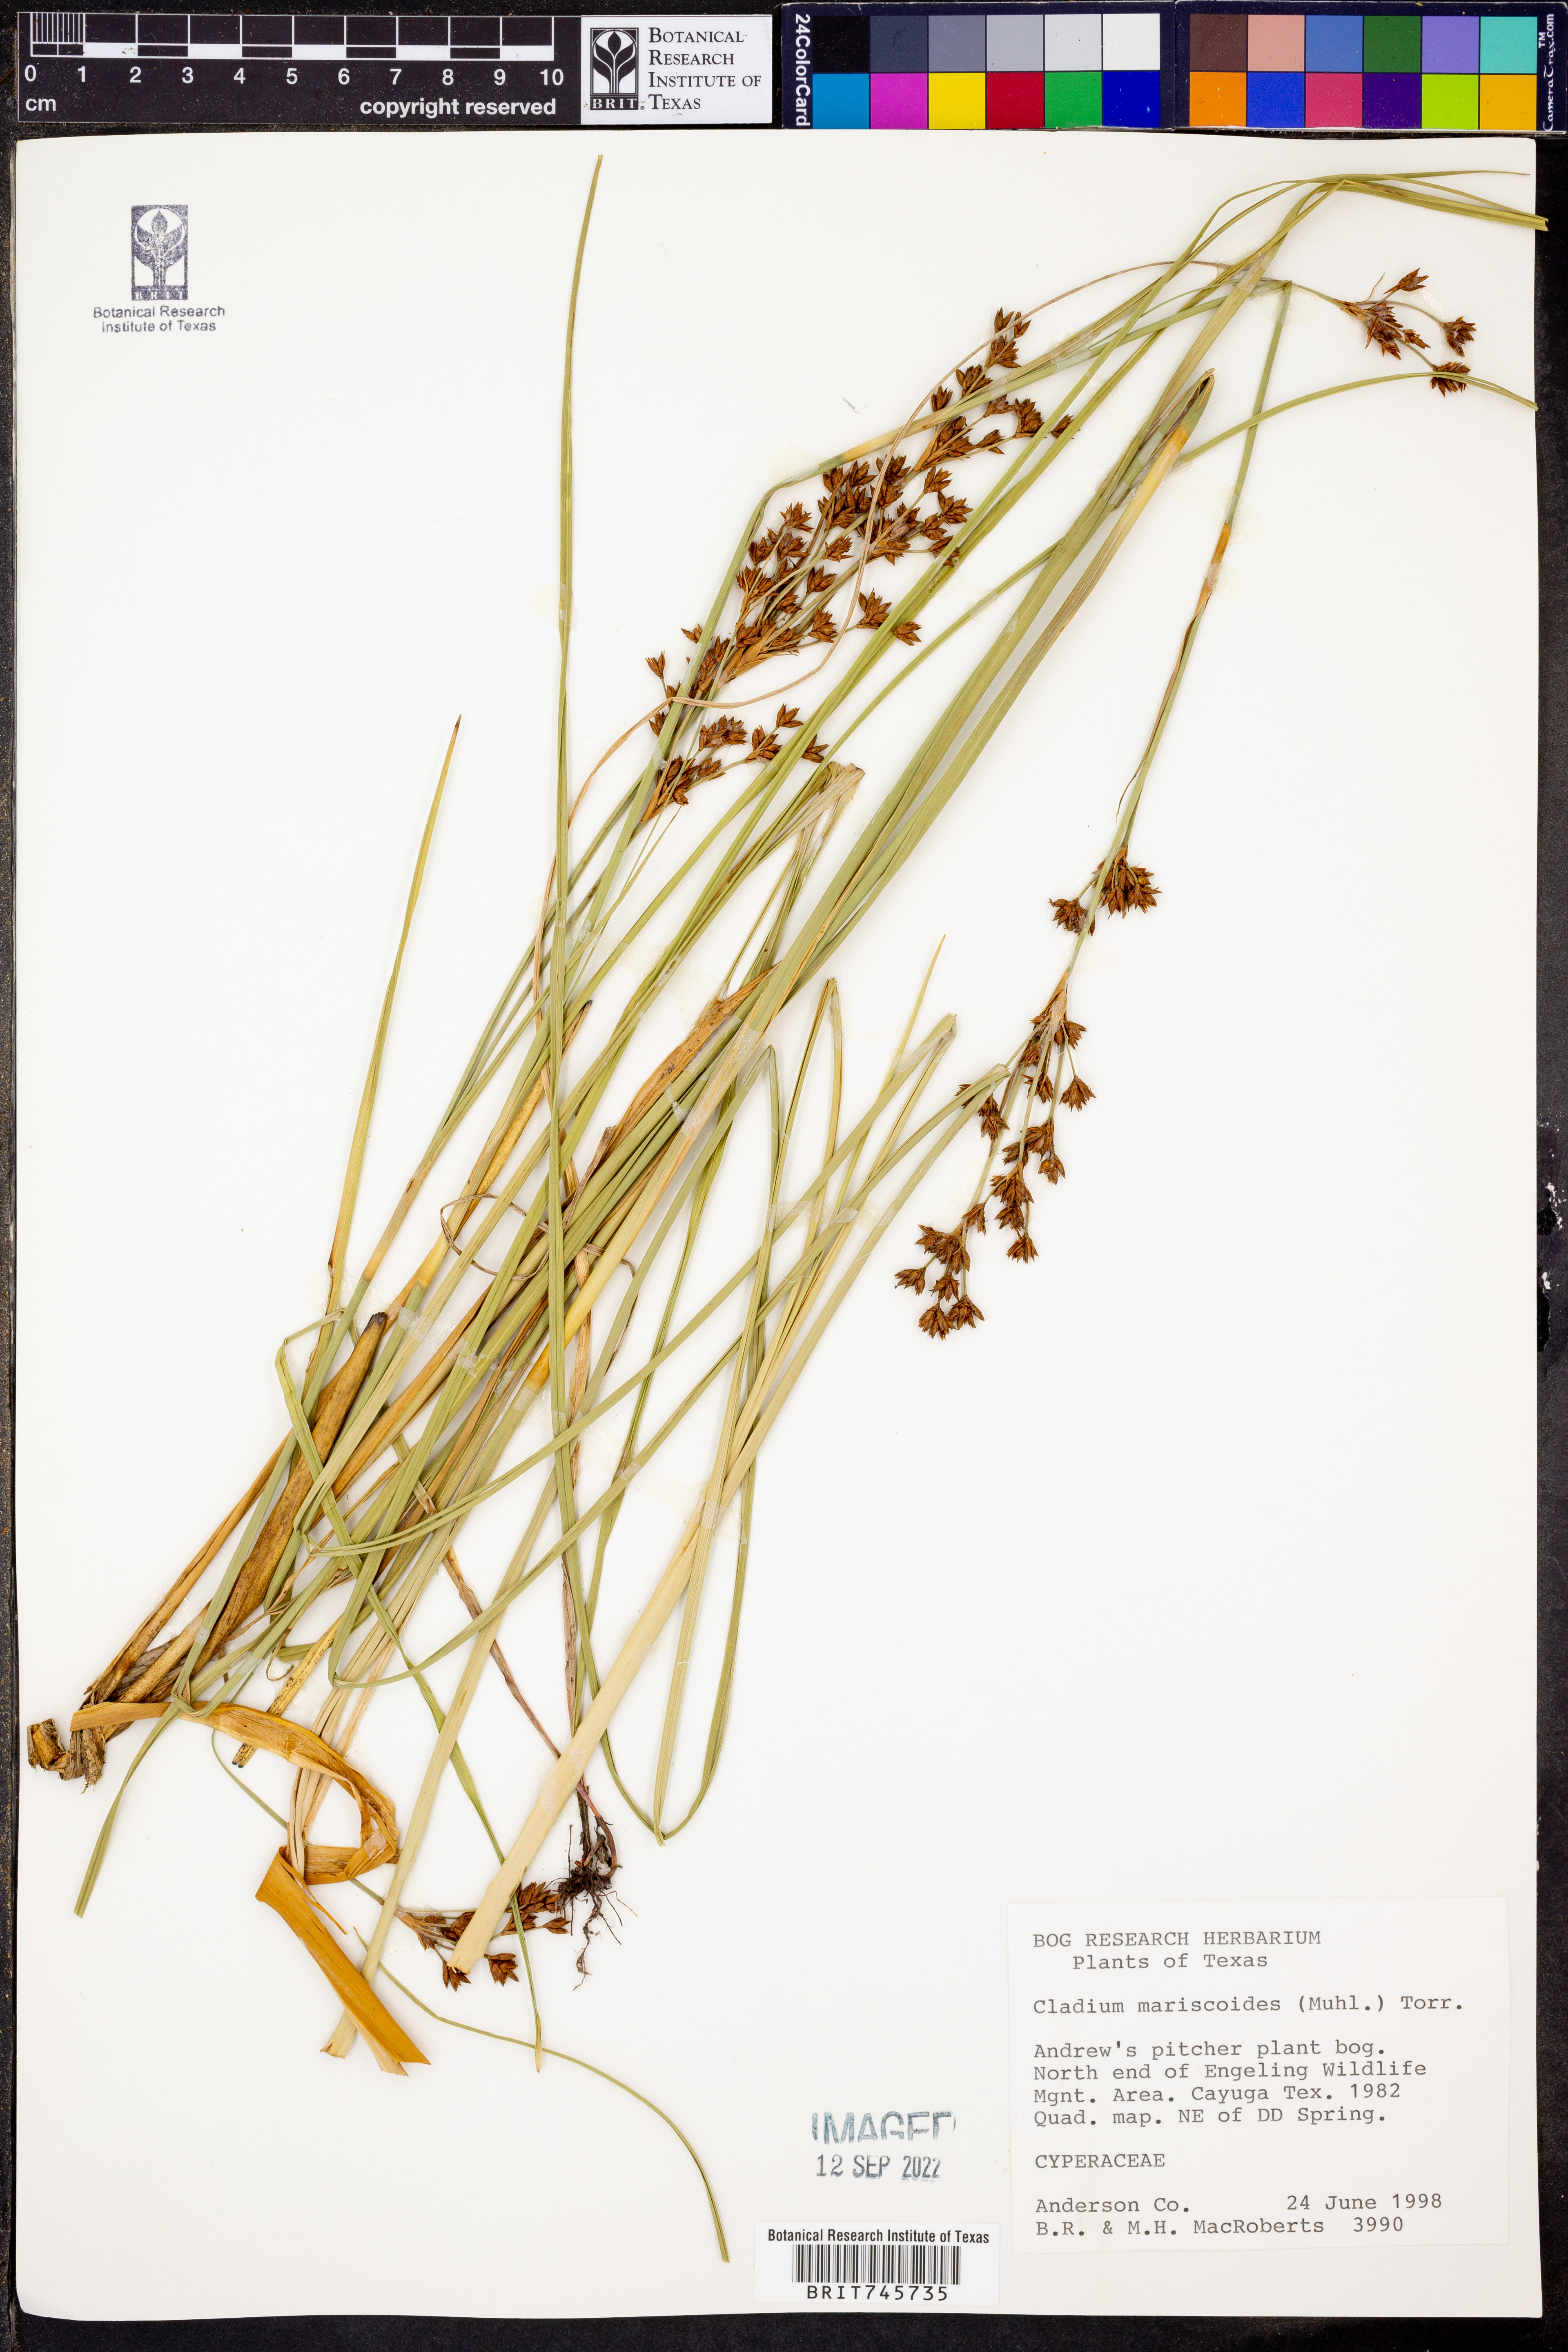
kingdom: Plantae
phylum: Tracheophyta
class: Liliopsida
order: Poales
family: Cyperaceae
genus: Cladium
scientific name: Cladium mariscoides
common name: Smooth sawgrass
